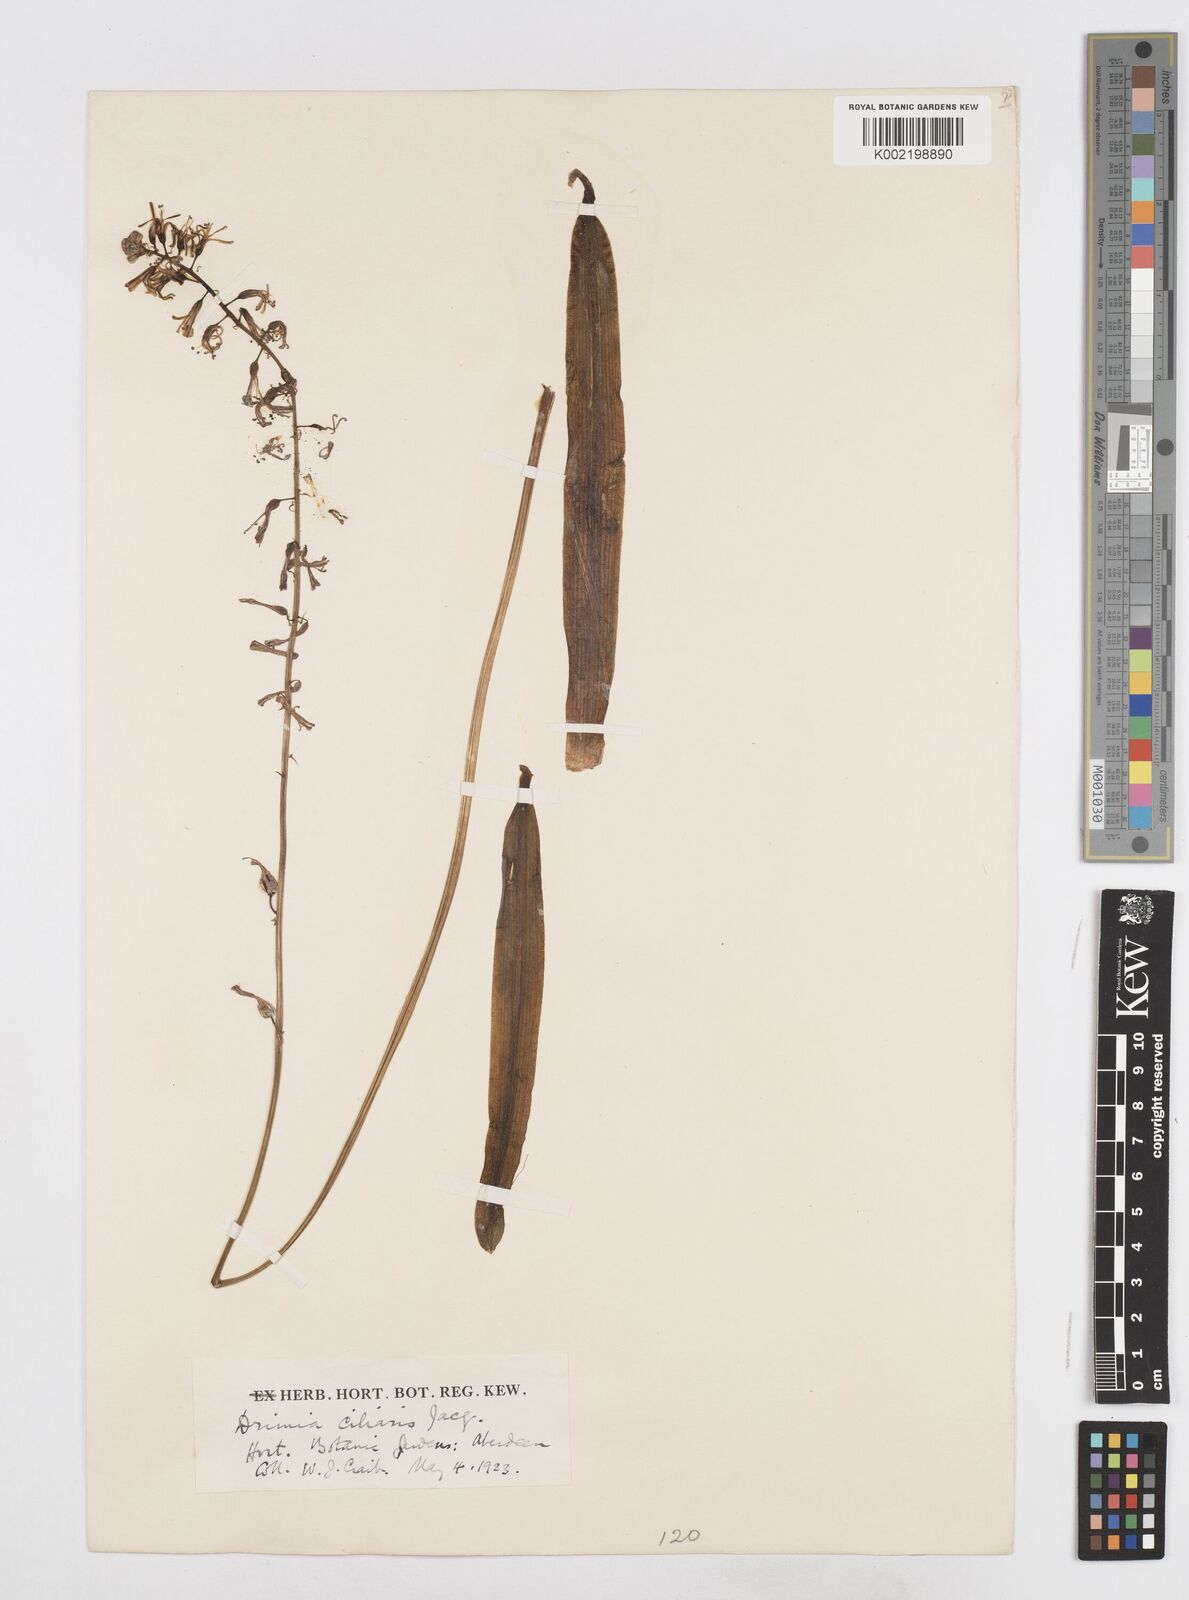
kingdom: Plantae
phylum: Tracheophyta
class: Liliopsida
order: Asparagales
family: Asparagaceae
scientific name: Asparagaceae
